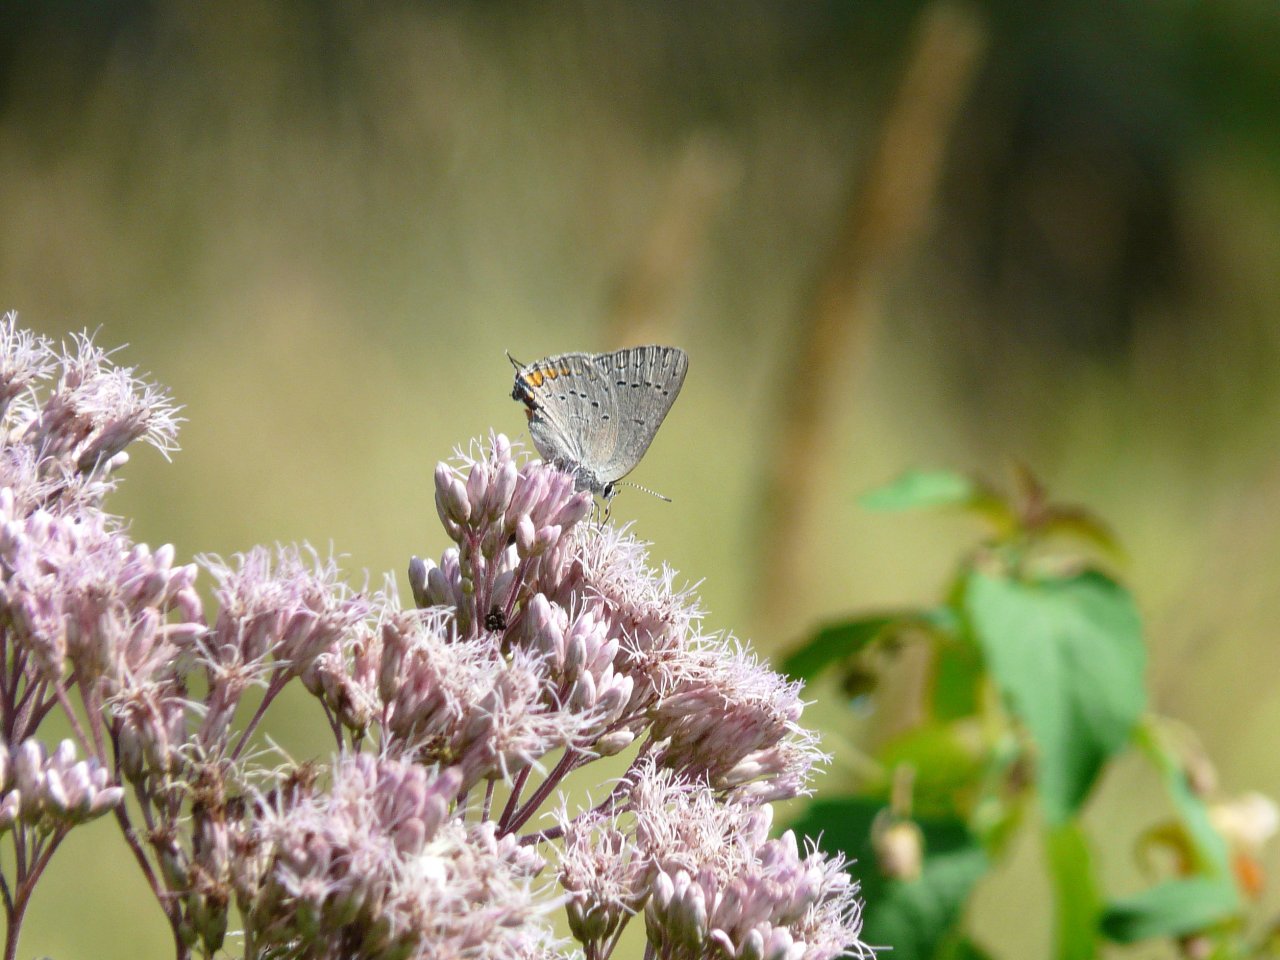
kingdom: Animalia
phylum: Arthropoda
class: Insecta
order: Lepidoptera
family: Lycaenidae
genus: Strymon
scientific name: Strymon acadica
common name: Acadian Hairstreak
